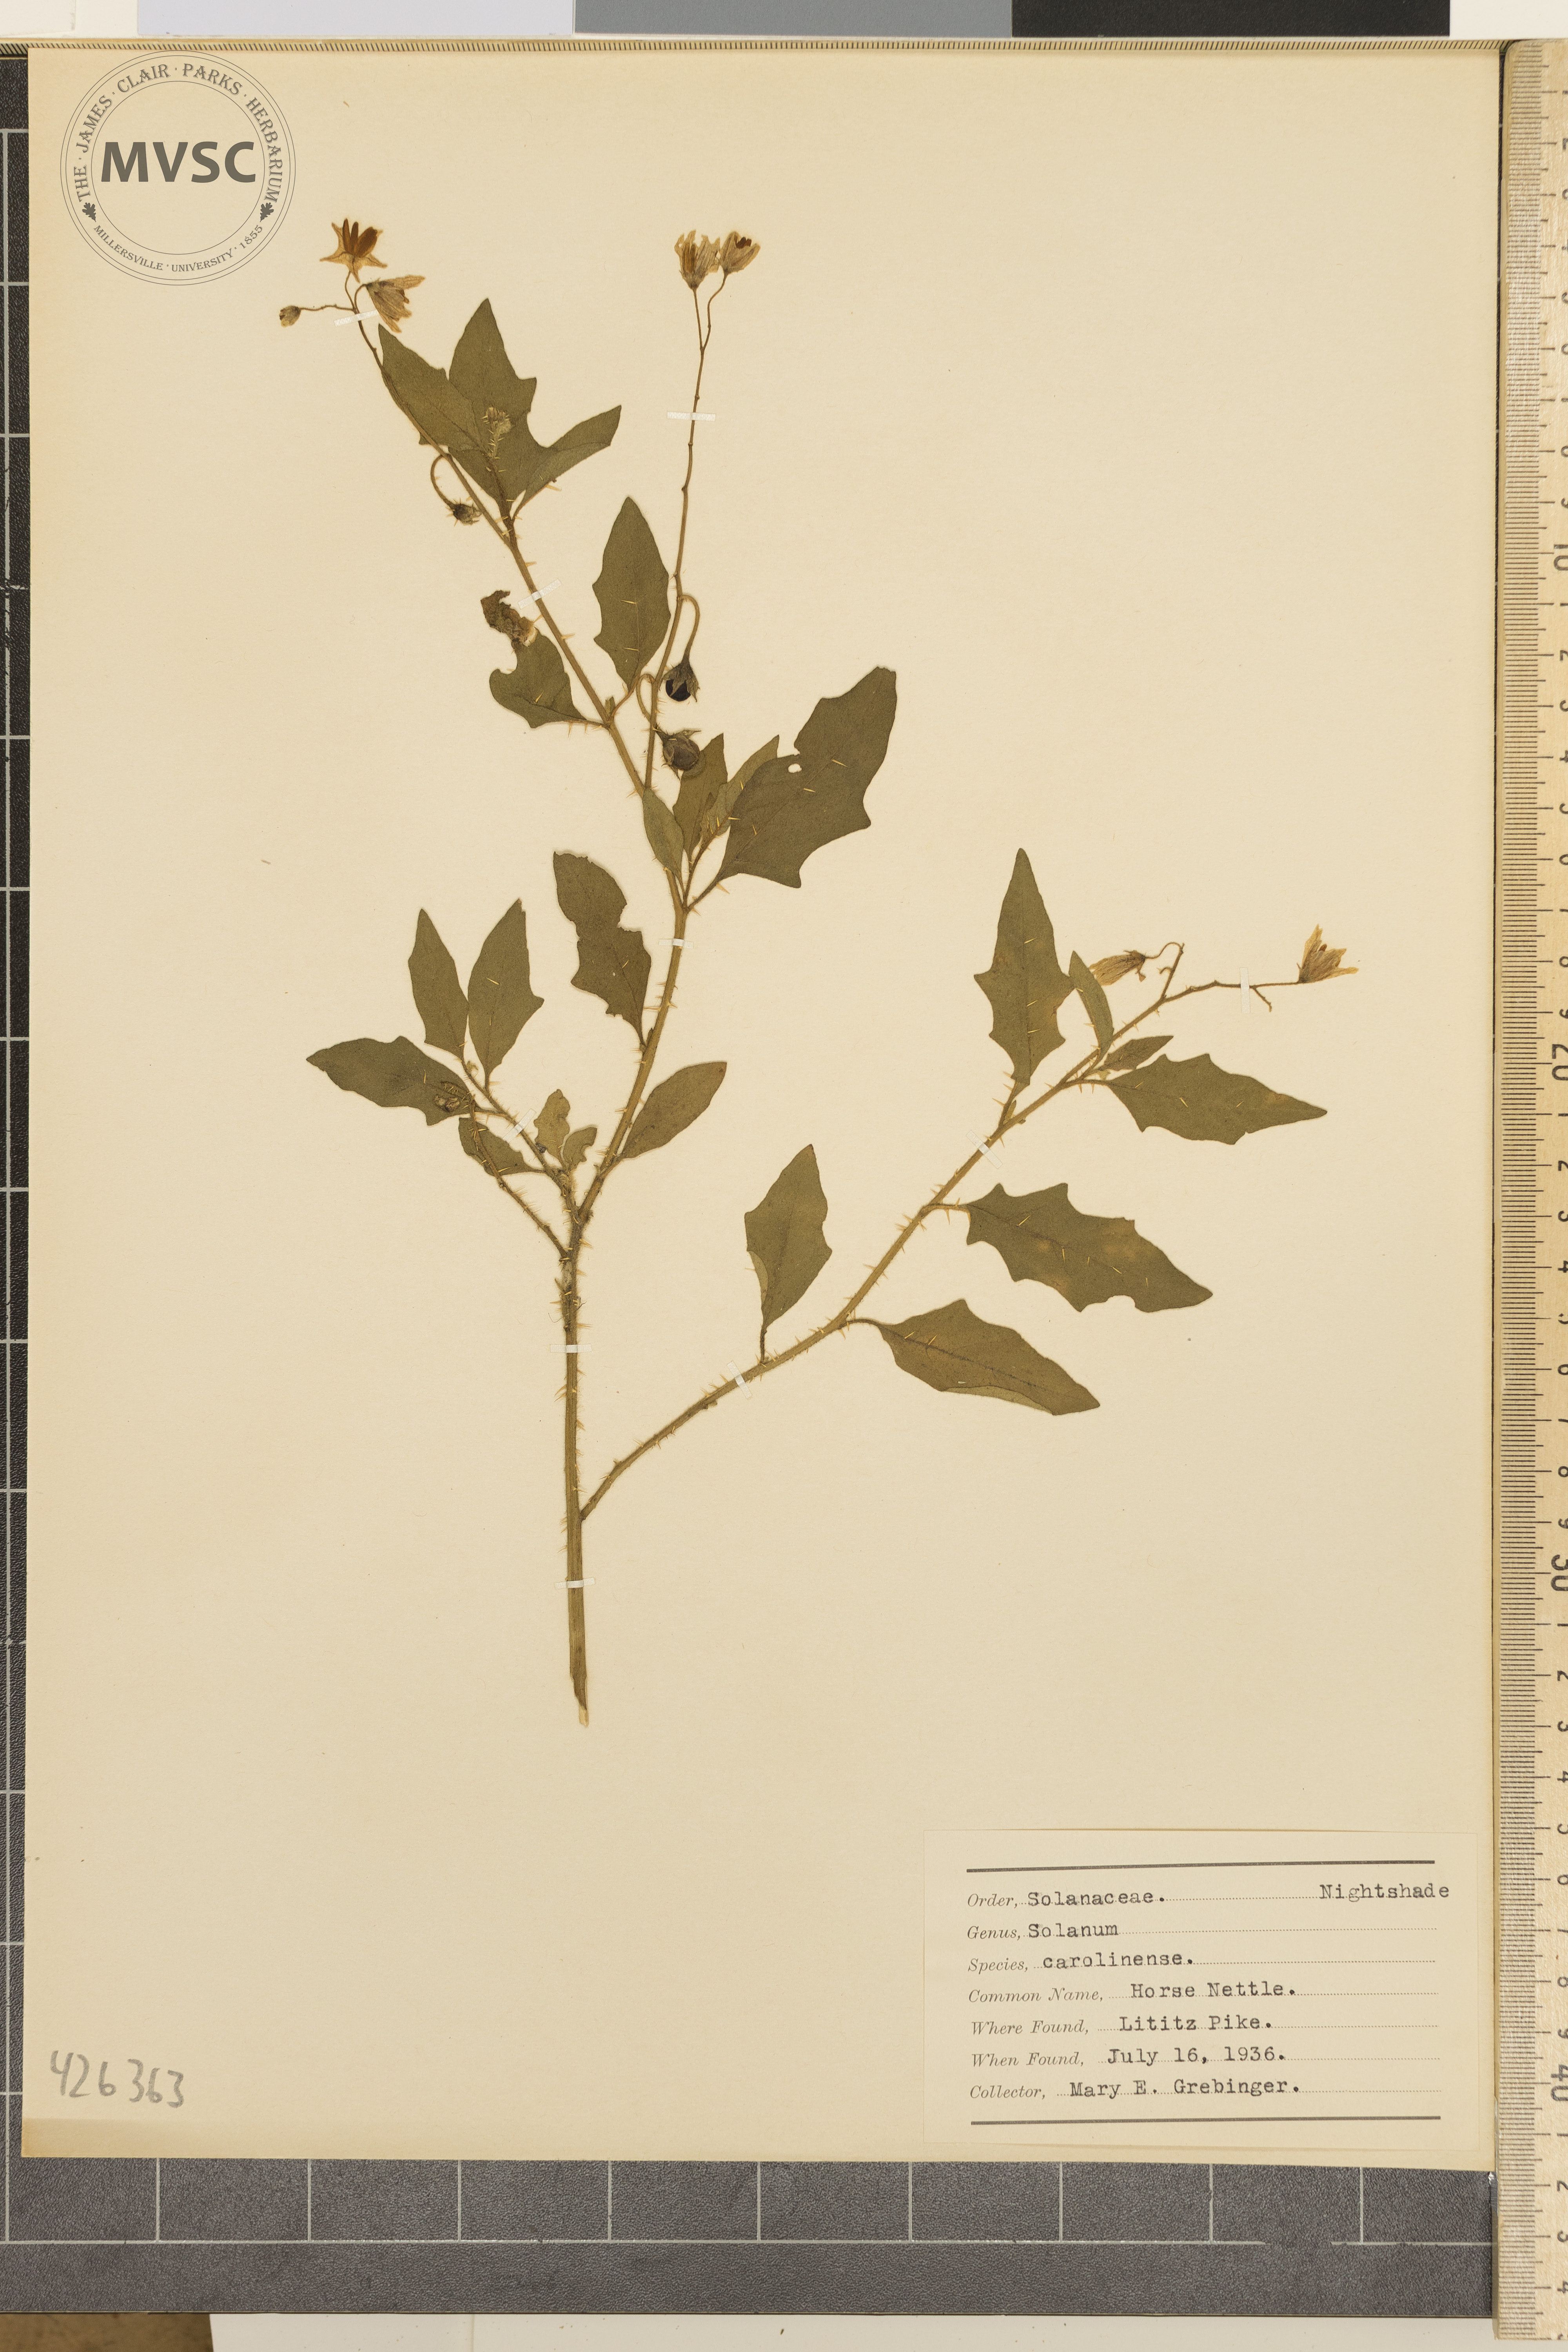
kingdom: Plantae
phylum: Tracheophyta
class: Magnoliopsida
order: Solanales
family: Solanaceae
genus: Solanum
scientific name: Solanum carolinense
